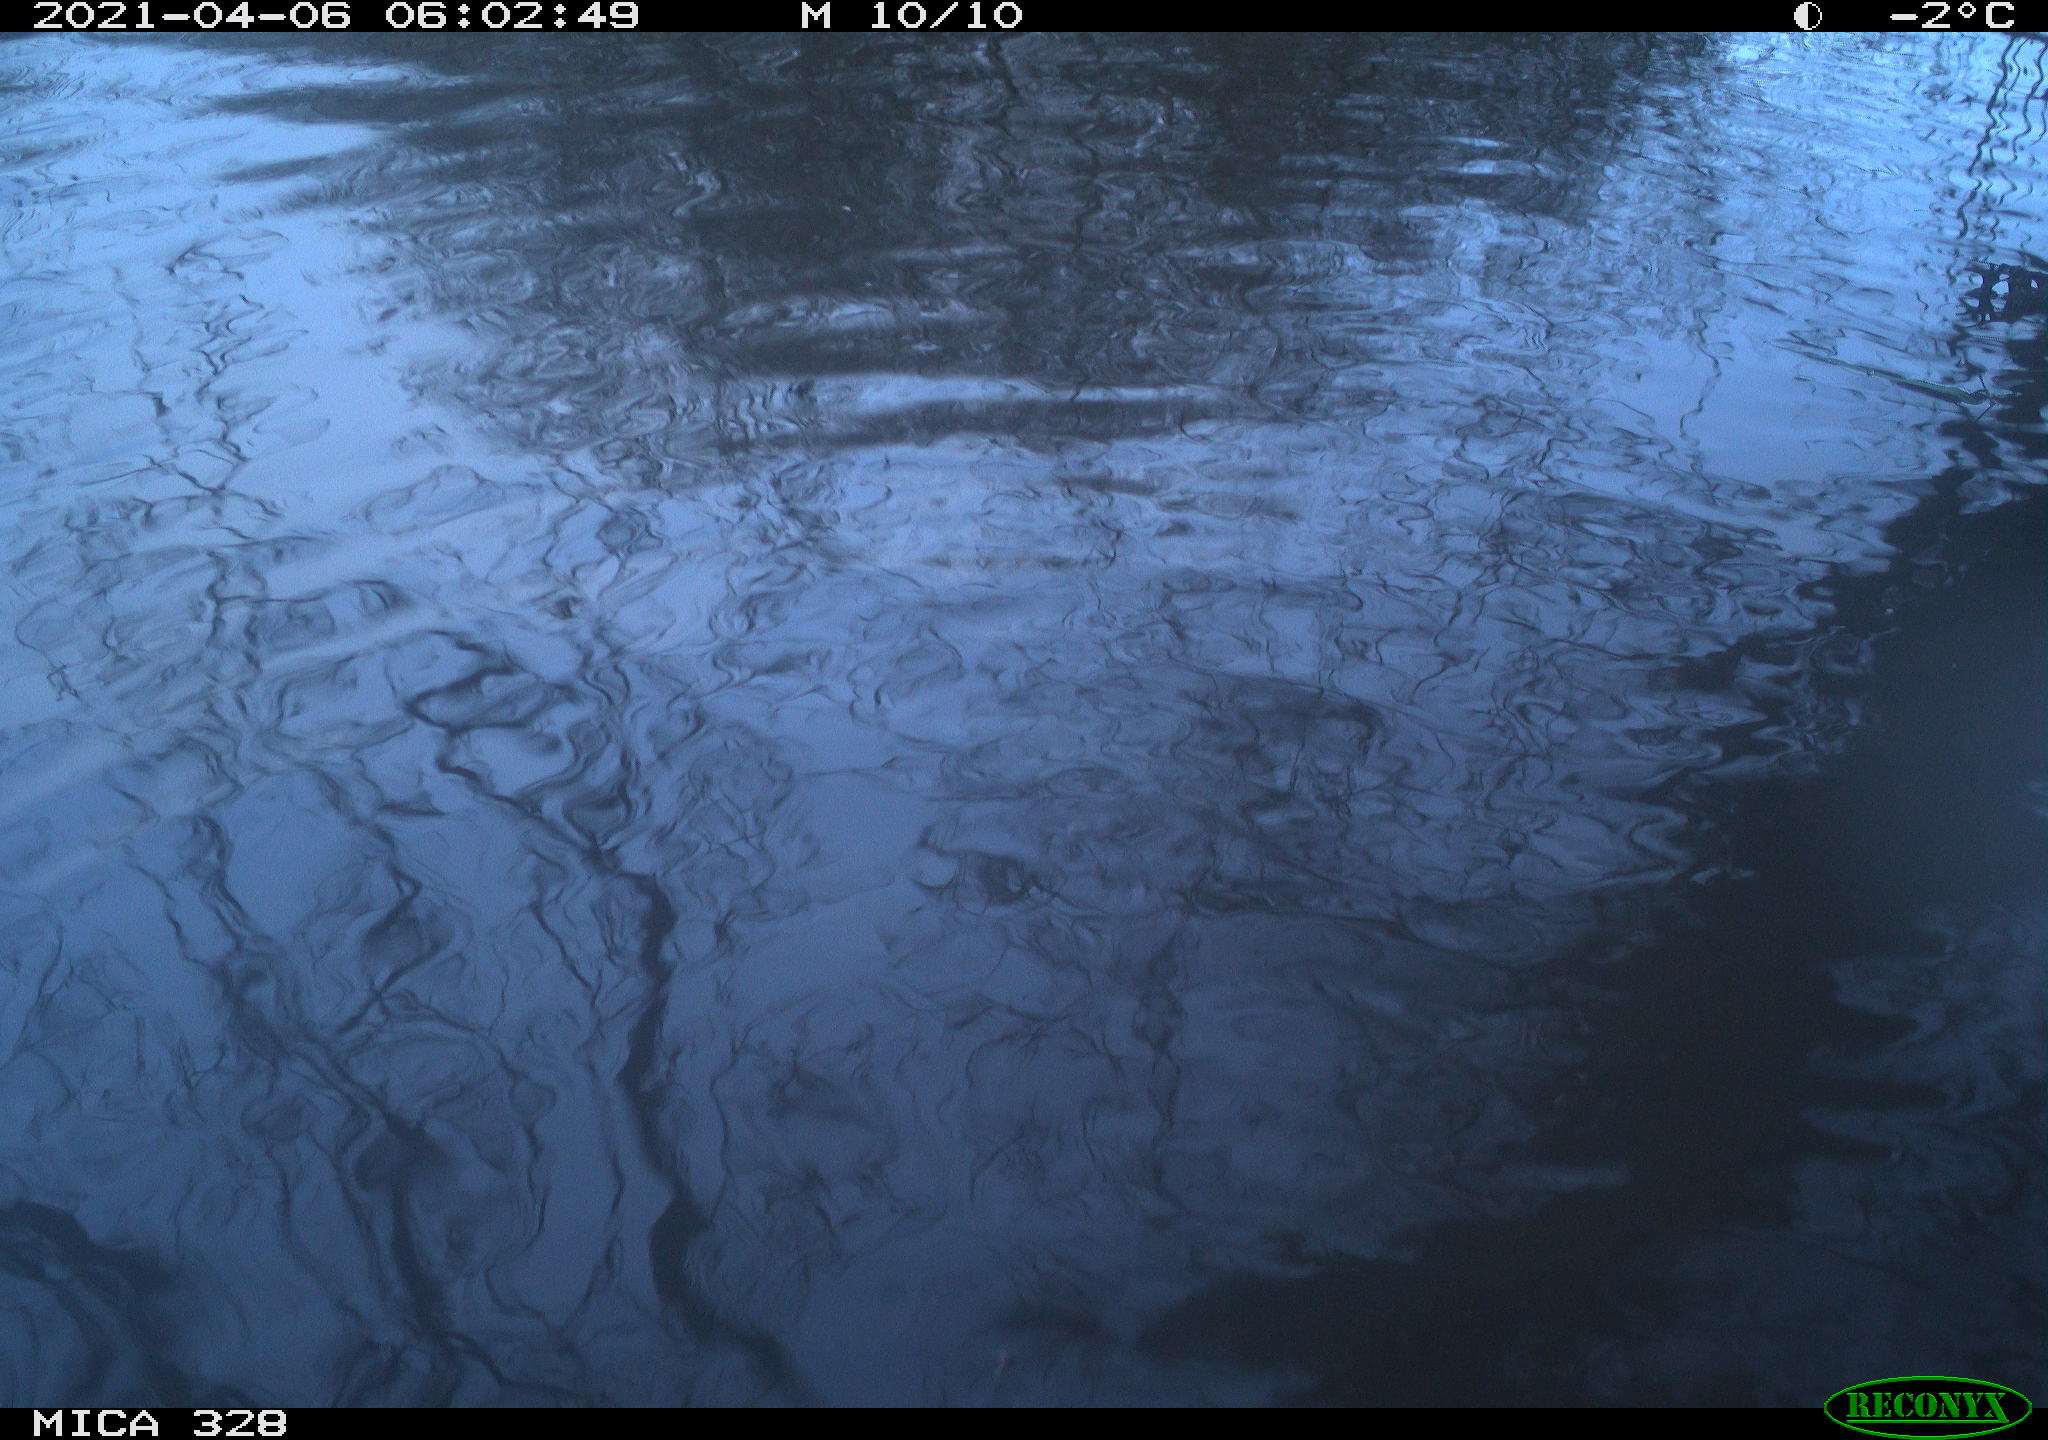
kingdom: Animalia
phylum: Chordata
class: Mammalia
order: Rodentia
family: Cricetidae
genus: Ondatra
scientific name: Ondatra zibethicus
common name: Muskrat
